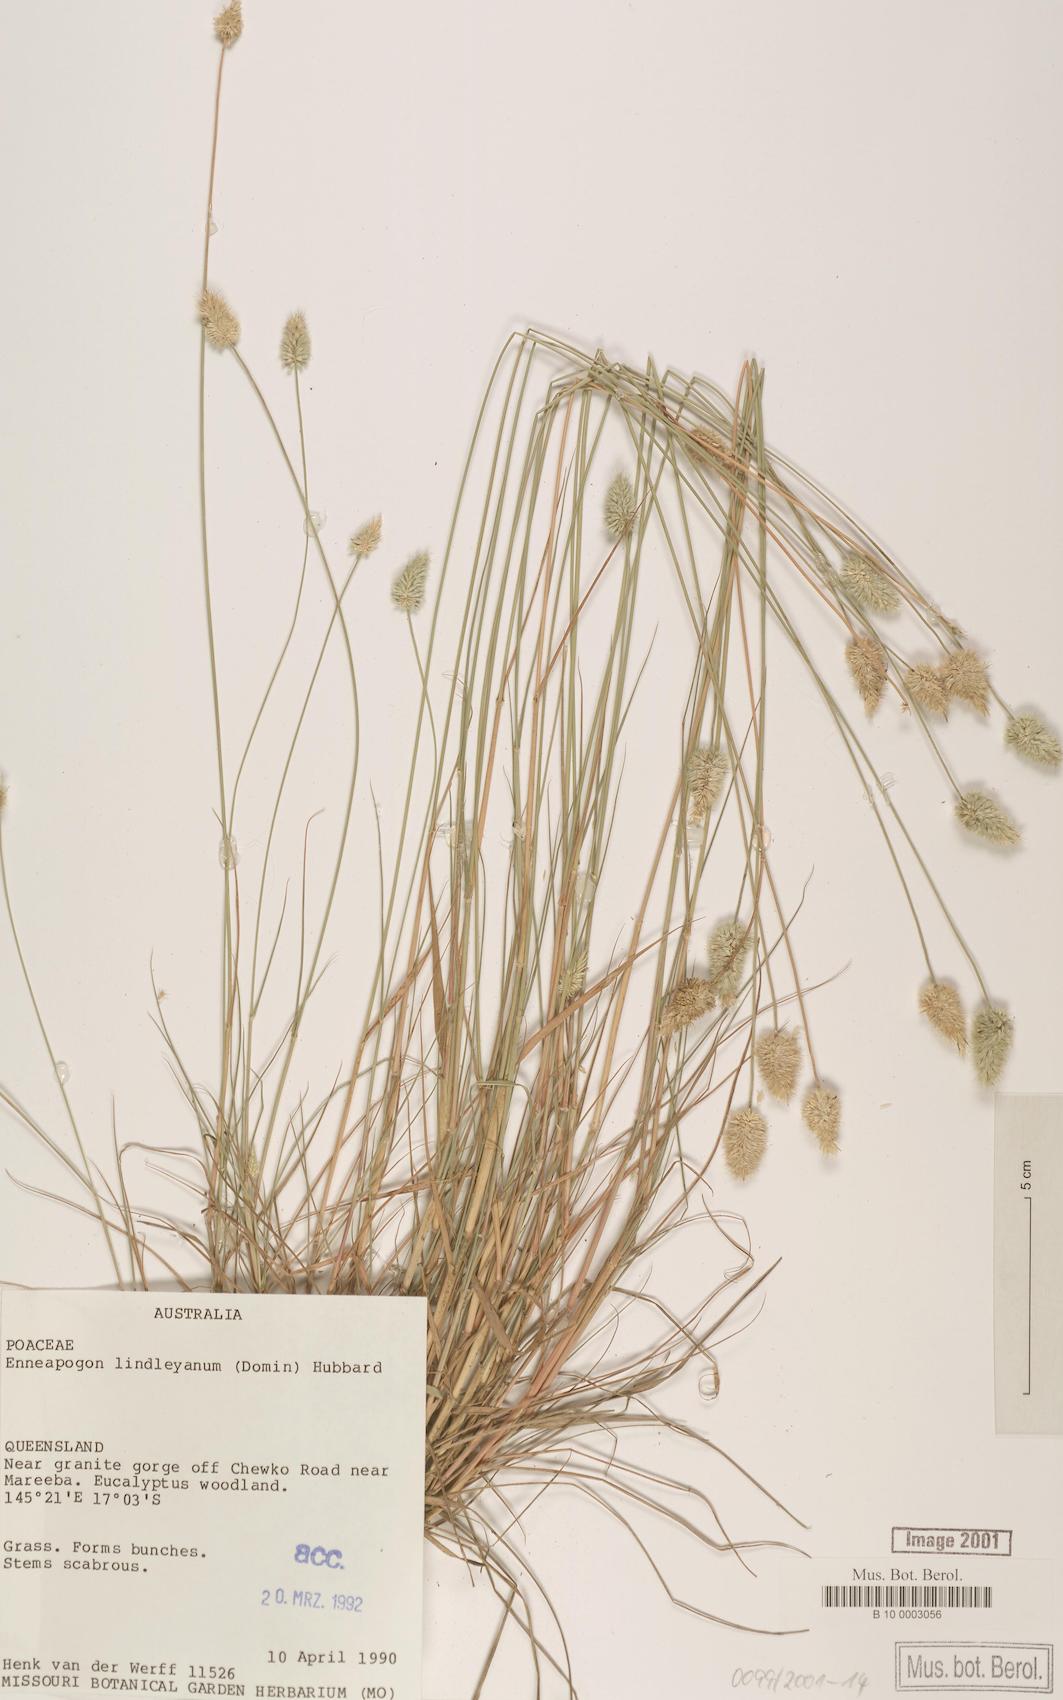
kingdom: Plantae
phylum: Tracheophyta
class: Liliopsida
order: Poales
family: Poaceae
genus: Enneapogon
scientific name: Enneapogon lindleyanus
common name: Conetop nineawn
